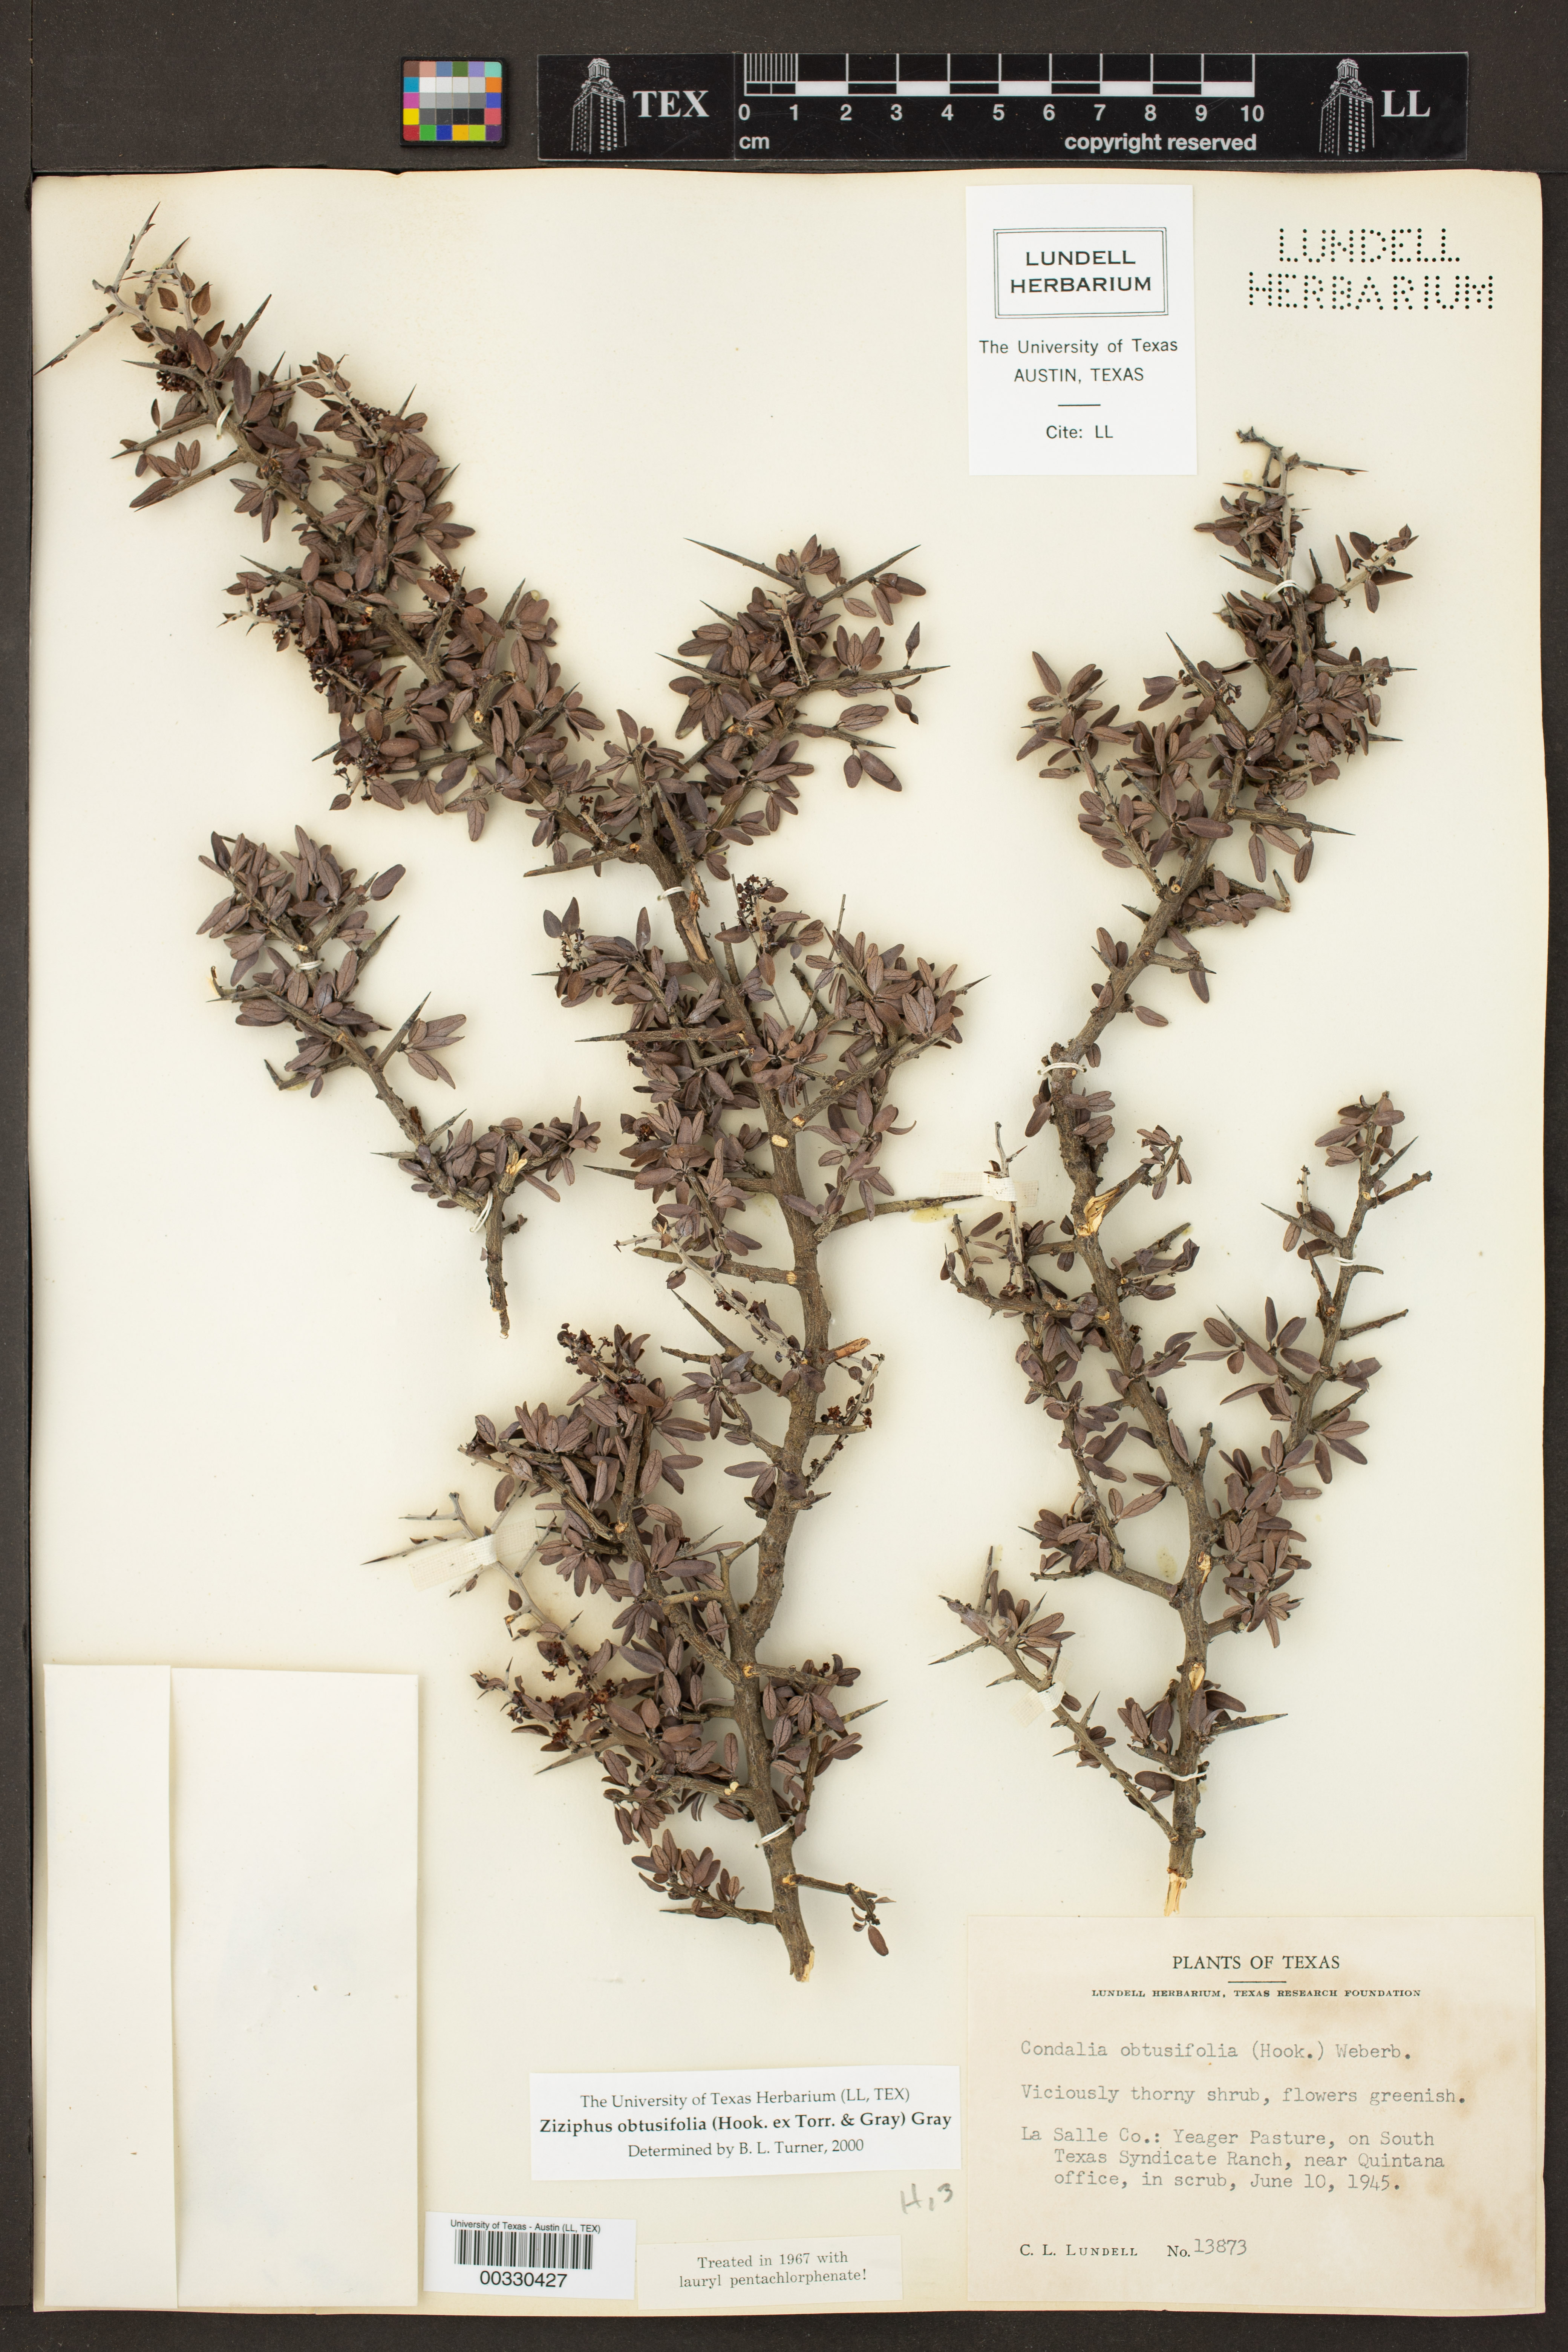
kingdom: Plantae
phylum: Tracheophyta
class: Magnoliopsida
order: Rosales
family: Rhamnaceae
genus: Sarcomphalus
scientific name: Sarcomphalus obtusifolius
